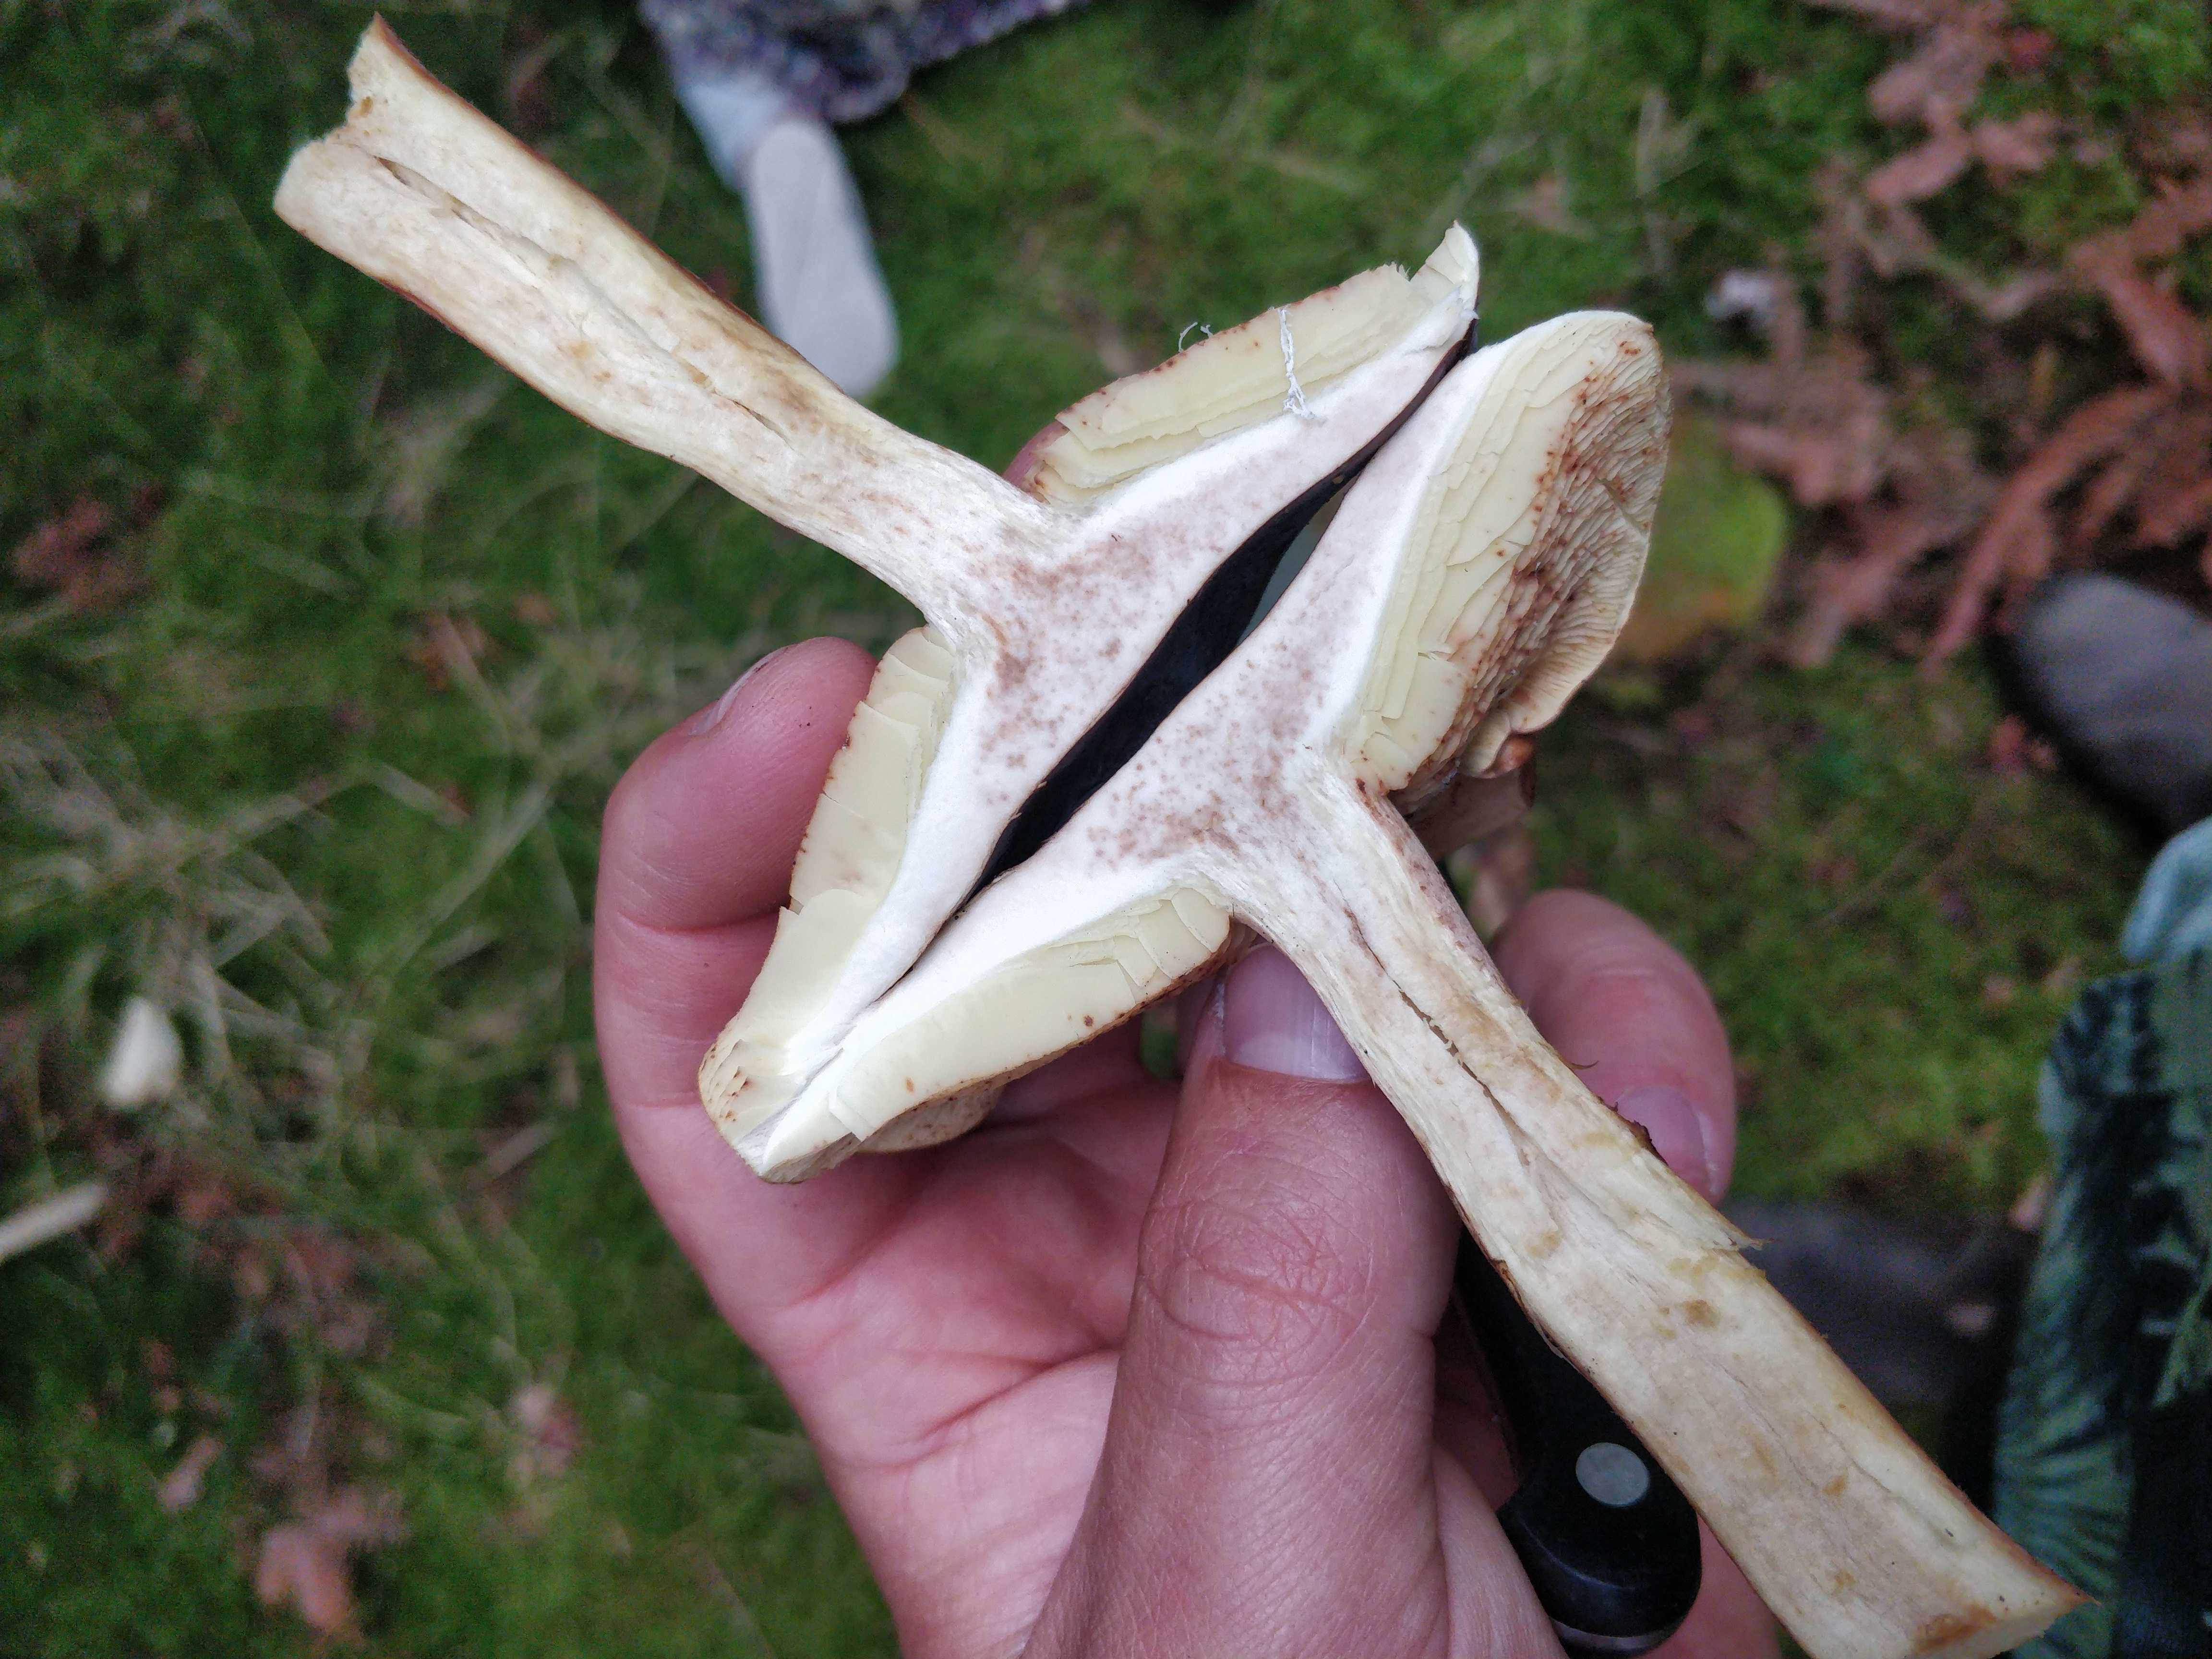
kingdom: Fungi
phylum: Basidiomycota
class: Agaricomycetes
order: Agaricales
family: Tricholomataceae
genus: Tricholoma
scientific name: Tricholoma fulvum
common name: birke-ridderhat
